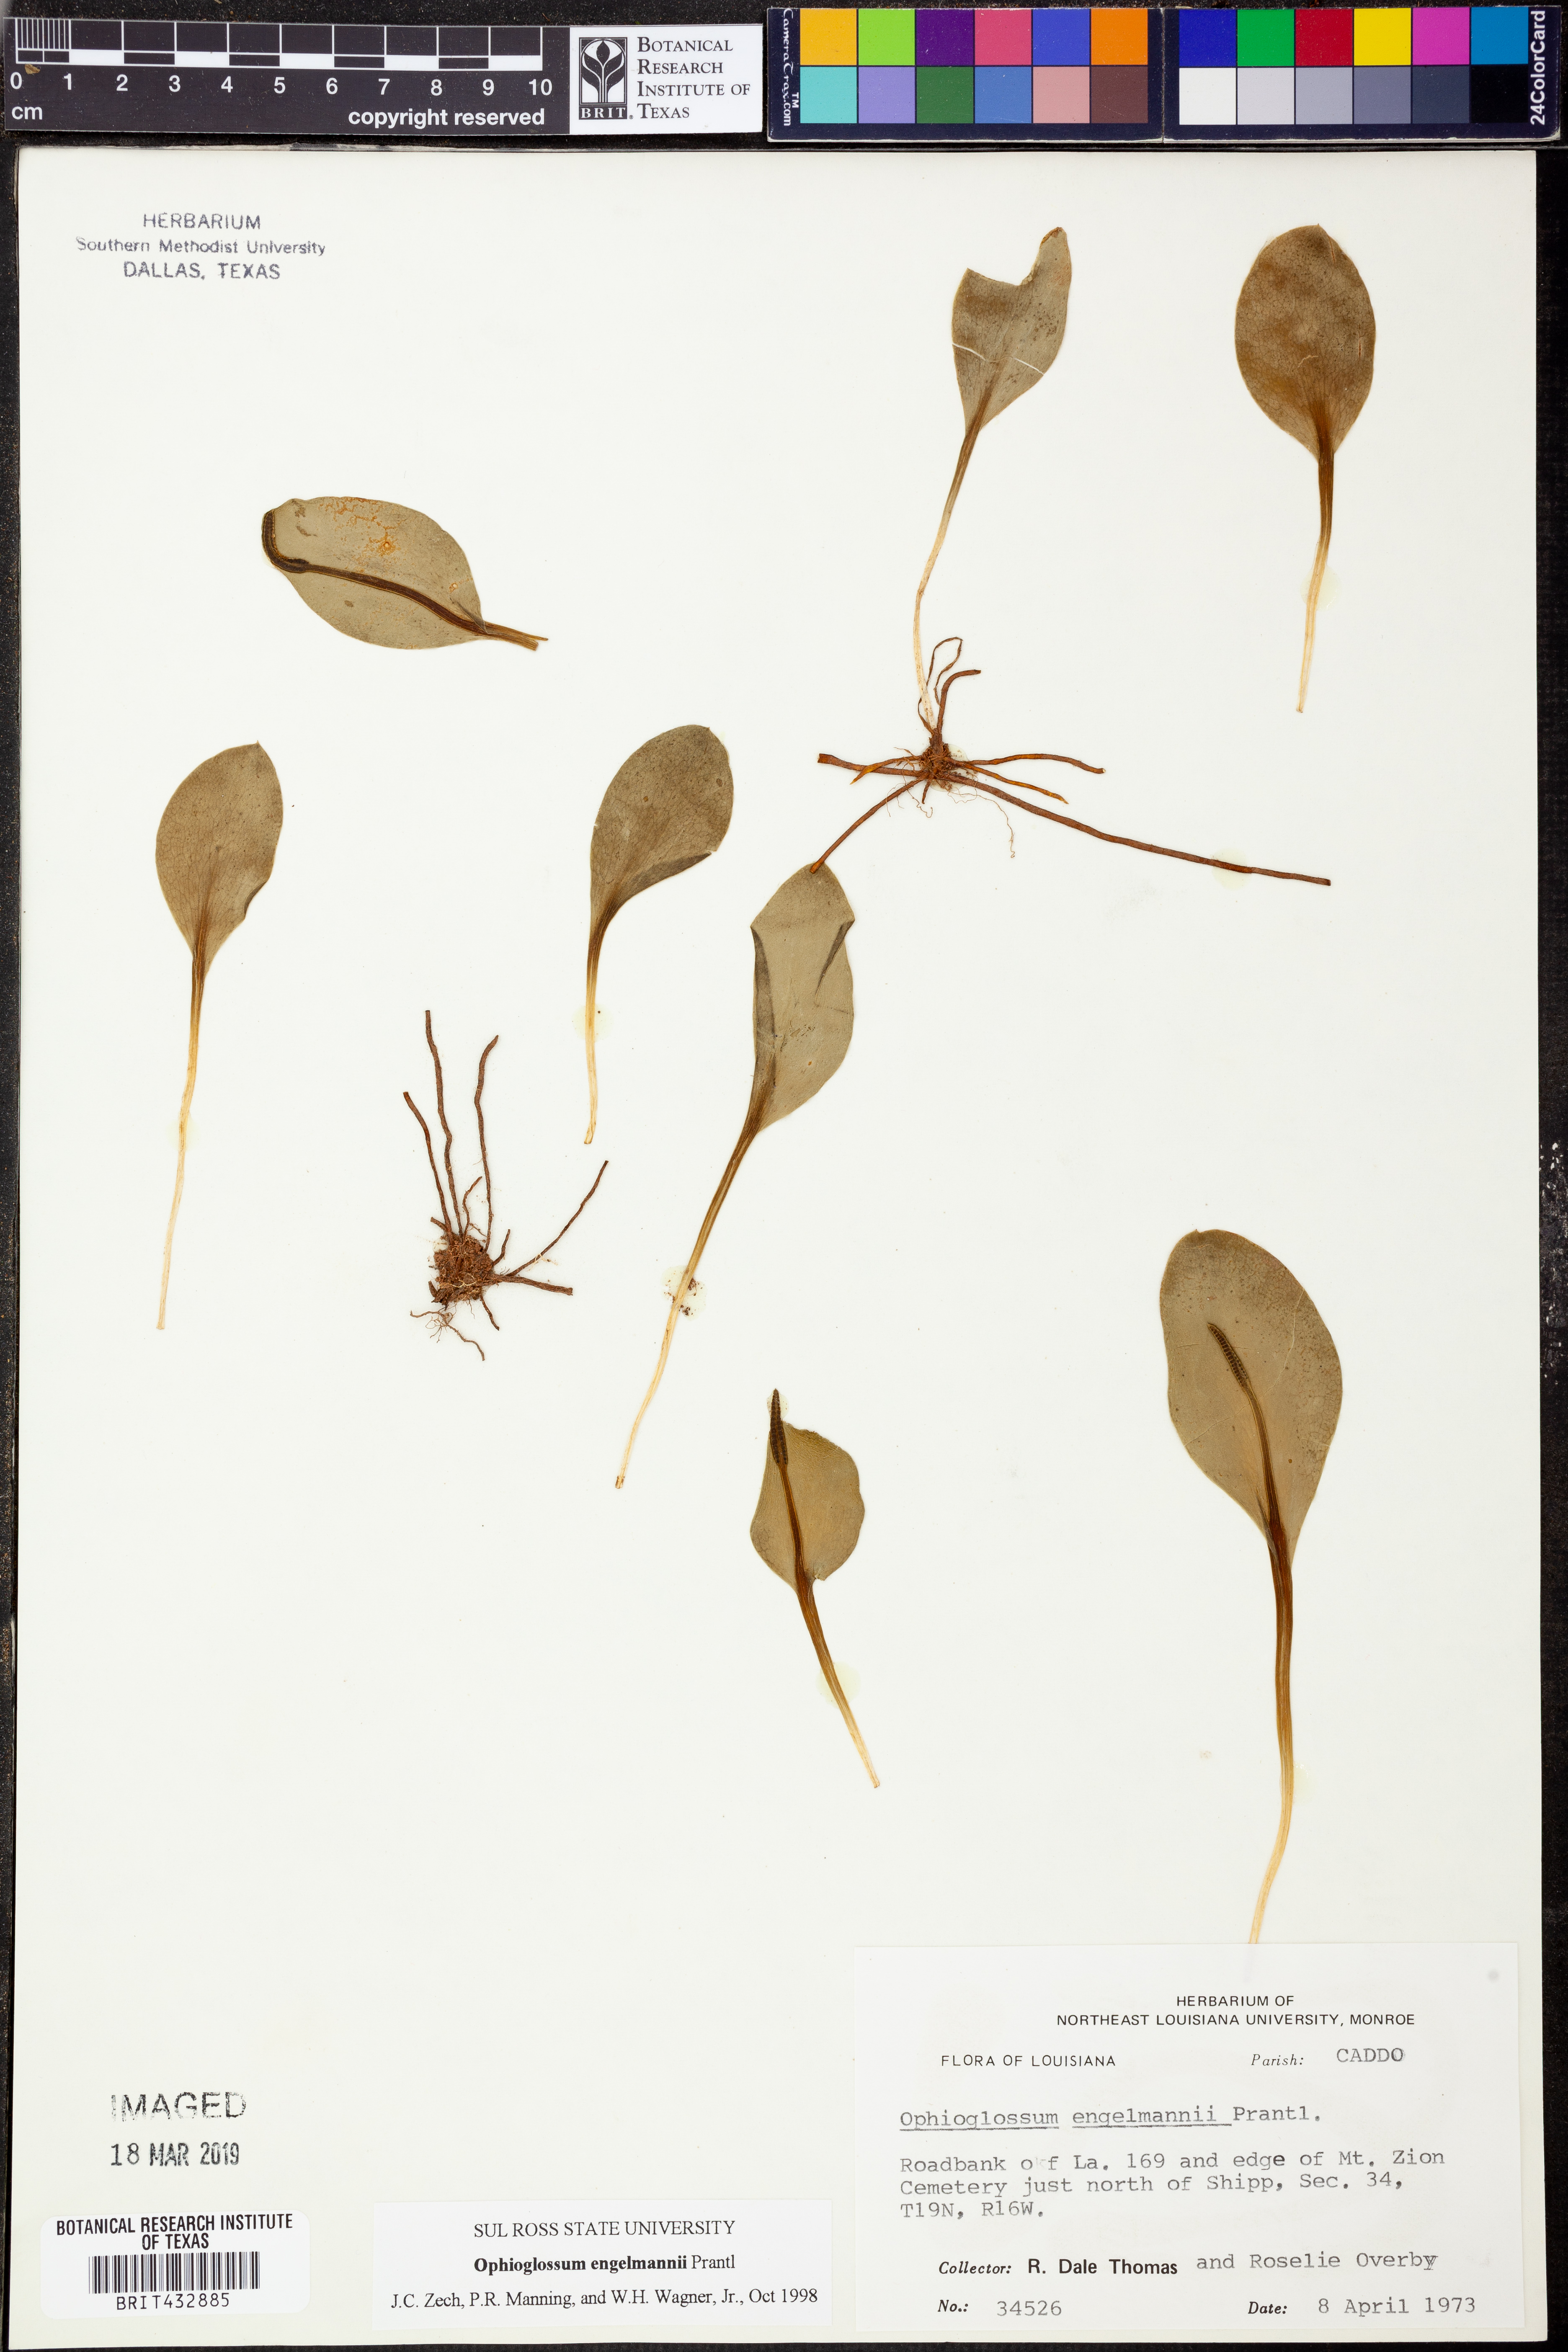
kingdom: Plantae
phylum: Tracheophyta
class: Polypodiopsida
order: Ophioglossales
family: Ophioglossaceae
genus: Ophioglossum
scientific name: Ophioglossum engelmannii
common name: Limestone adder's-tongue
